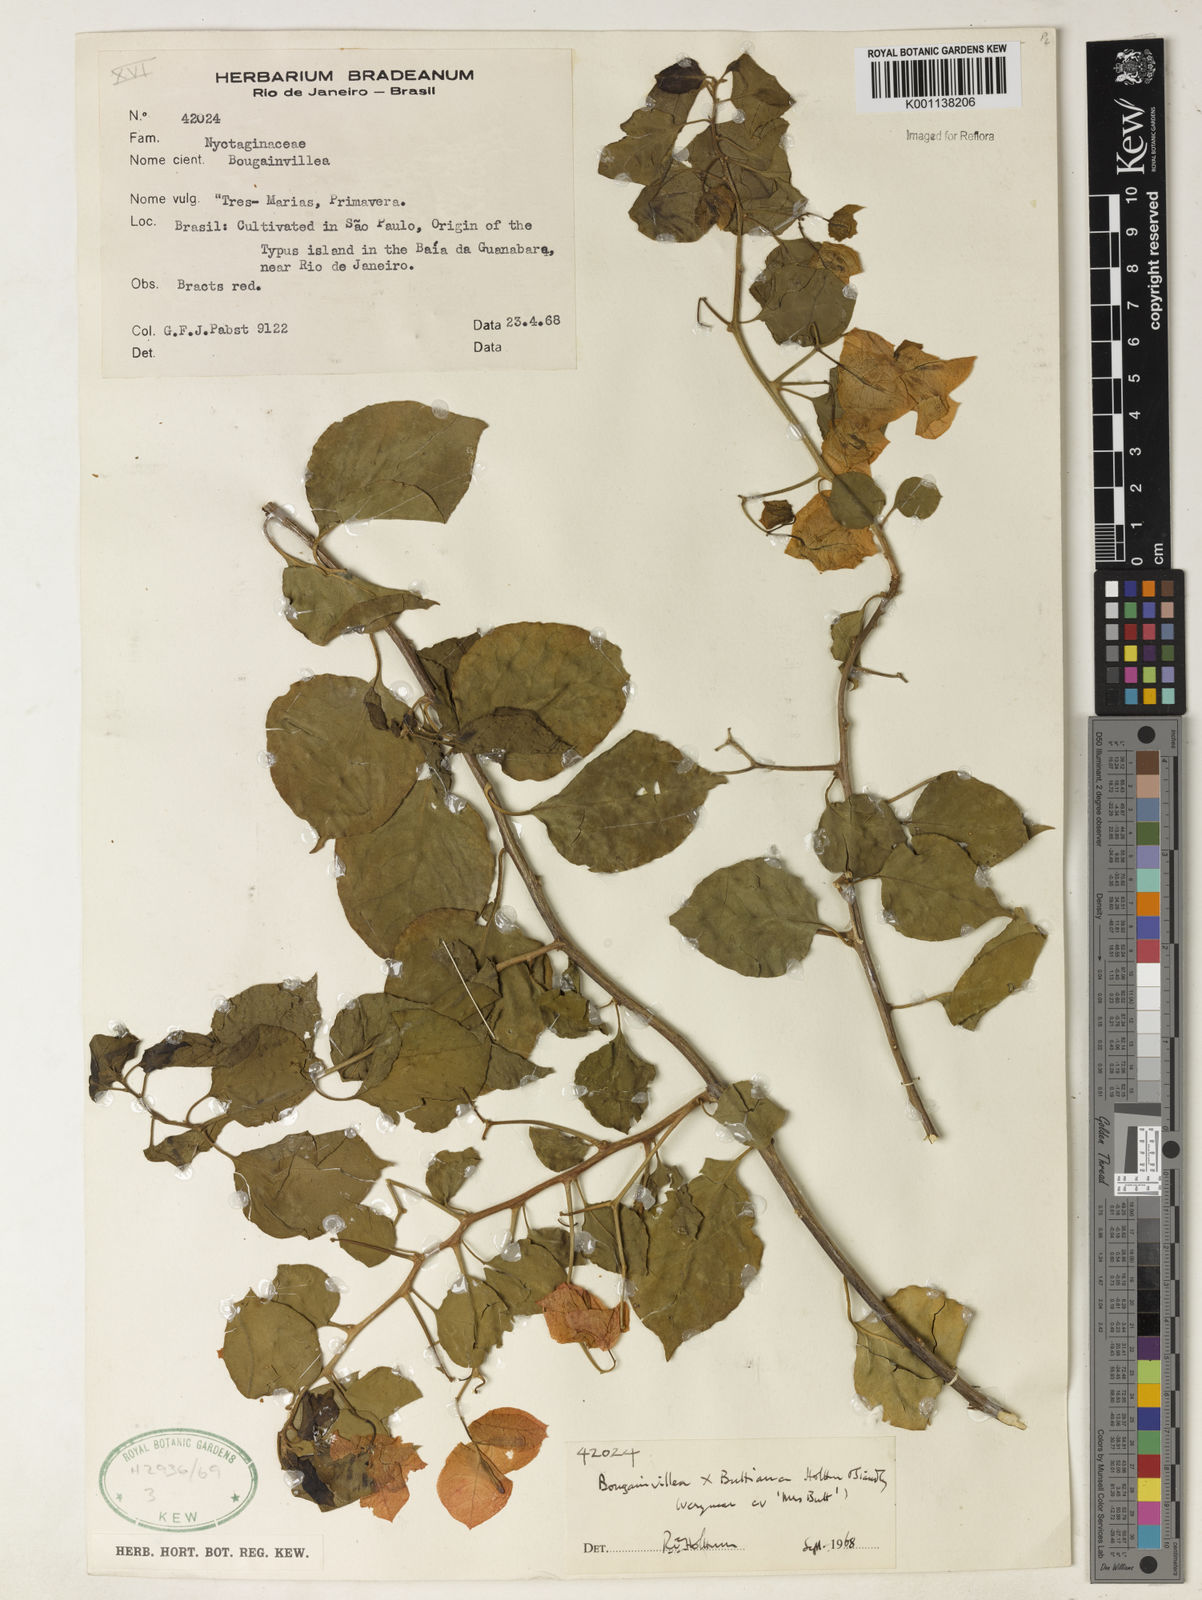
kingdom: Plantae
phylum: Tracheophyta
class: Magnoliopsida
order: Caryophyllales
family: Nyctaginaceae
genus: Bougainvillea
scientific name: Bougainvillea buttiana
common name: Bougainvillea
